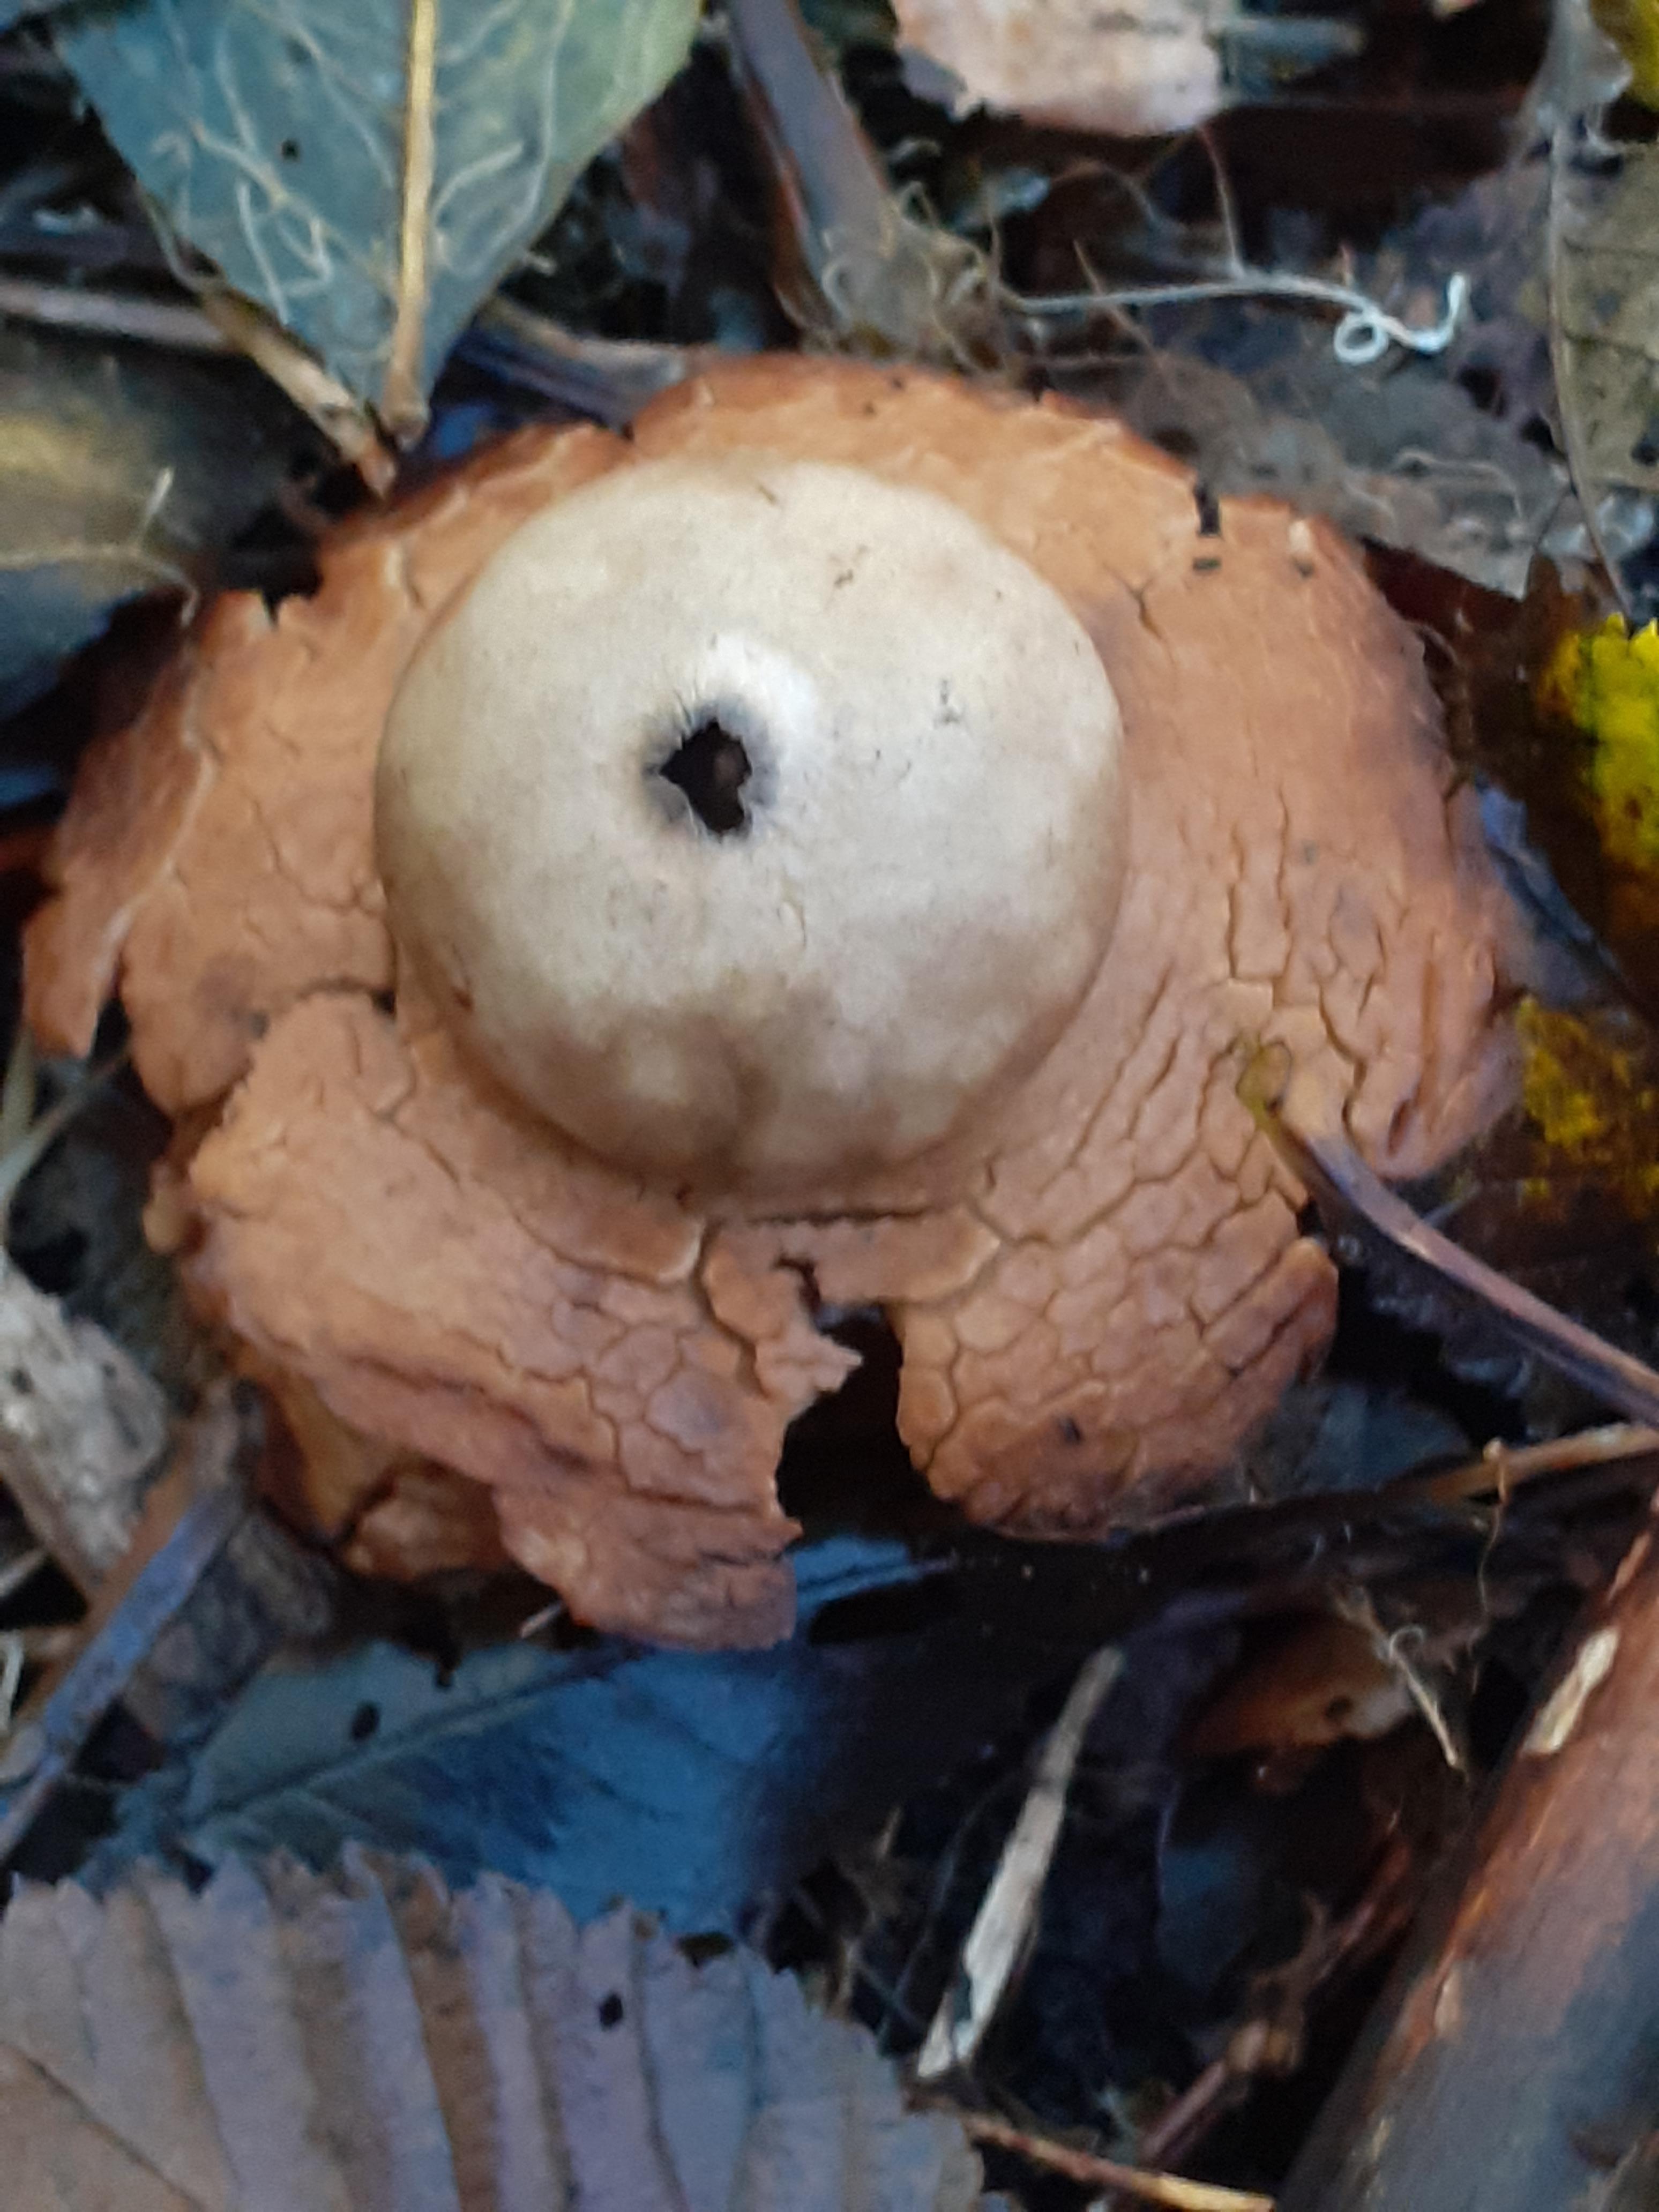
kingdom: Fungi
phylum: Basidiomycota
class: Agaricomycetes
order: Geastrales
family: Geastraceae
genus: Geastrum
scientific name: Geastrum michelianum
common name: kødet stjernebold
